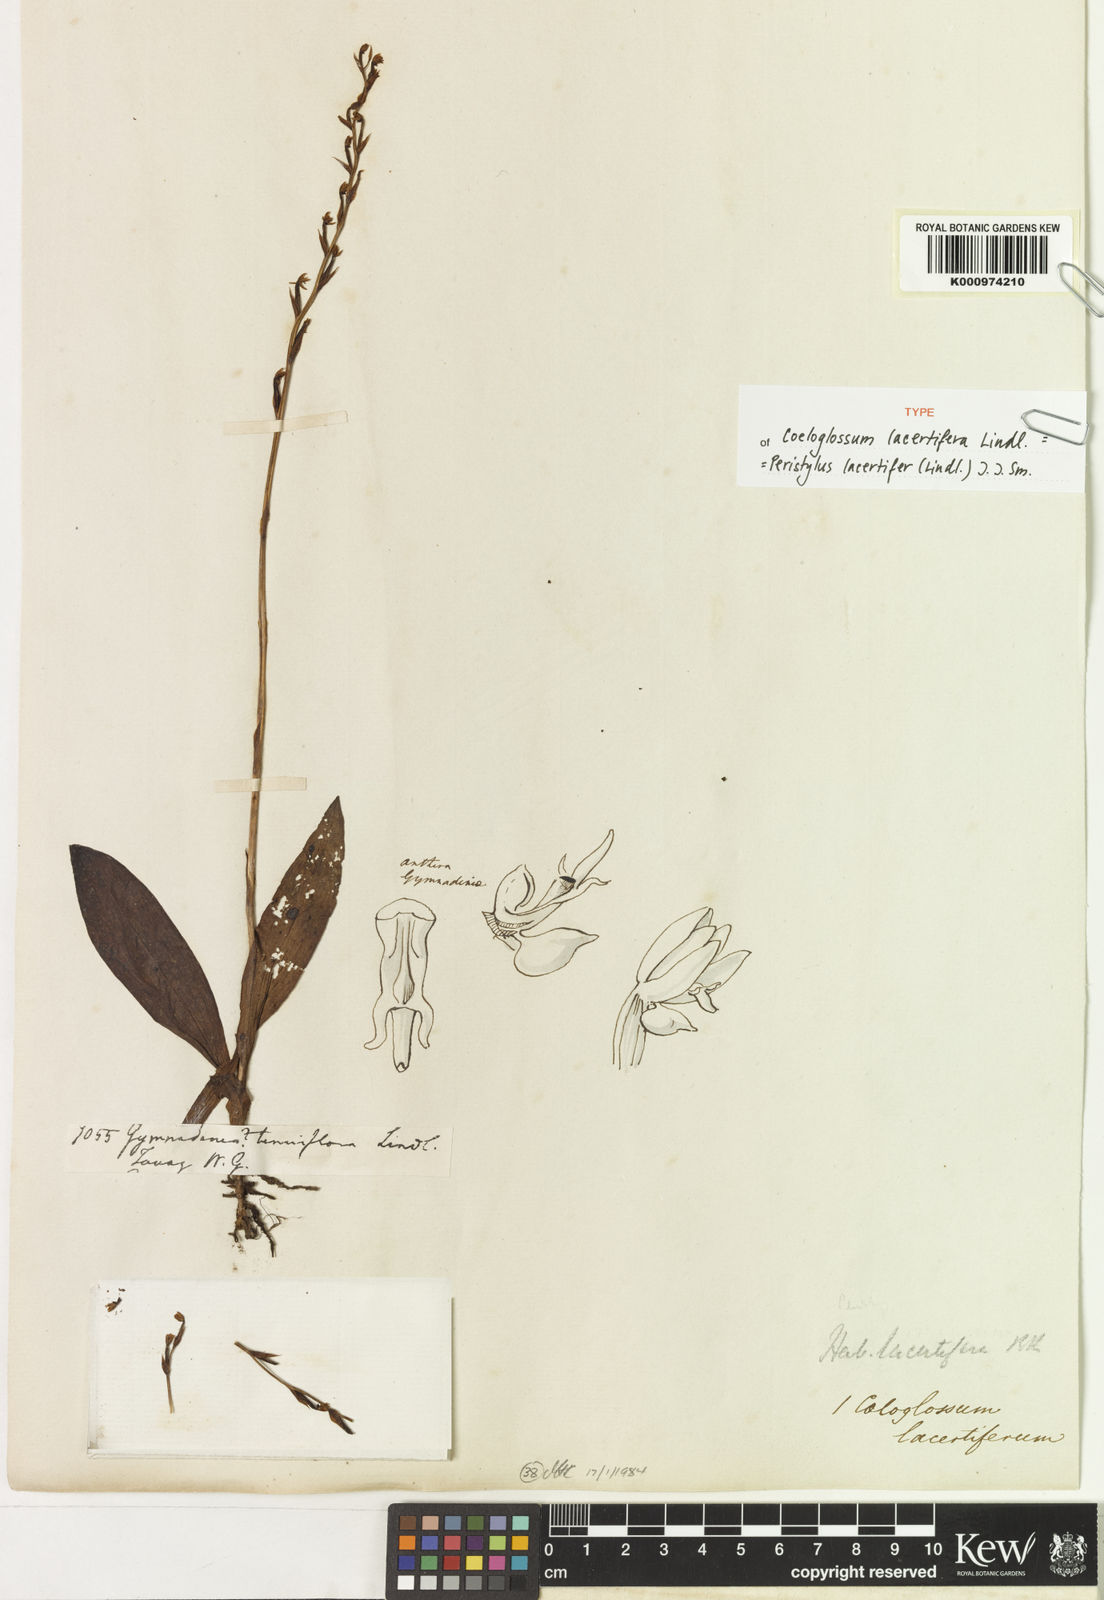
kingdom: Plantae
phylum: Tracheophyta
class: Liliopsida
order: Asparagales
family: Orchidaceae
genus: Peristylus
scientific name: Peristylus lacertifer
